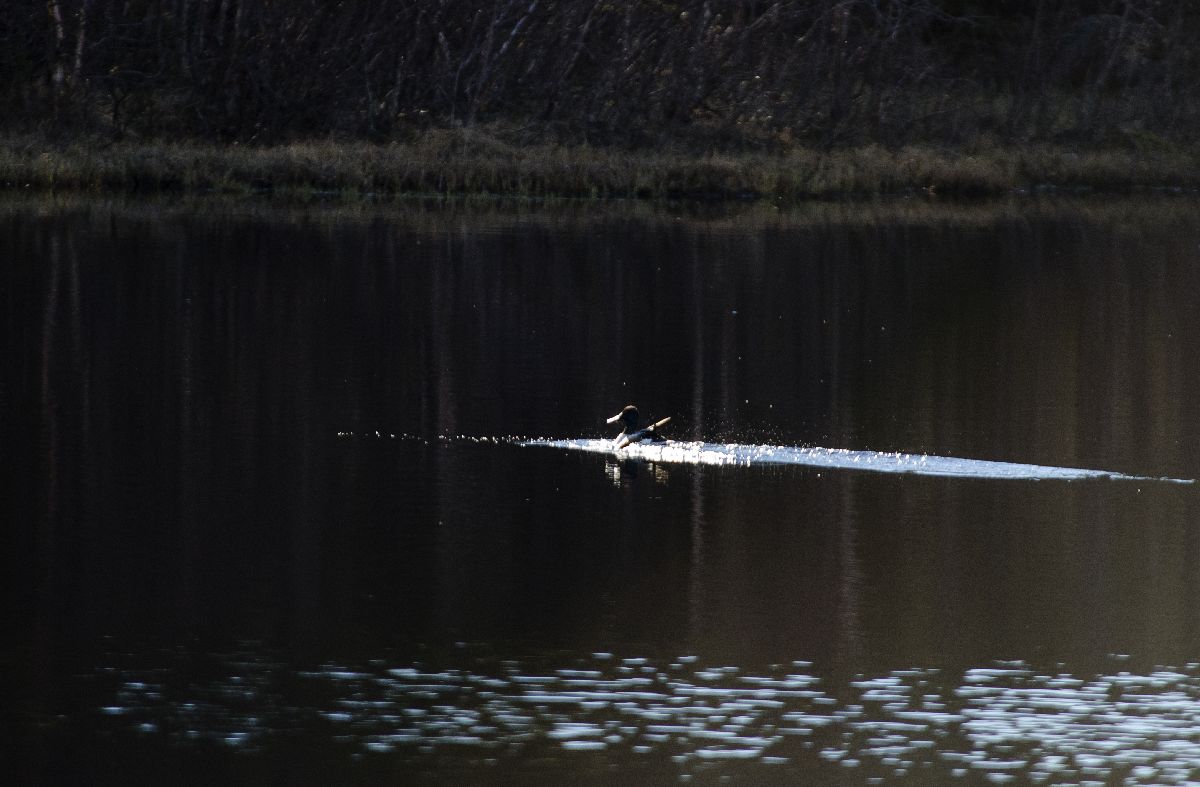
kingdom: Animalia
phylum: Chordata
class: Aves
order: Anseriformes
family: Anatidae
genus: Spatula
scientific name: Spatula clypeata
